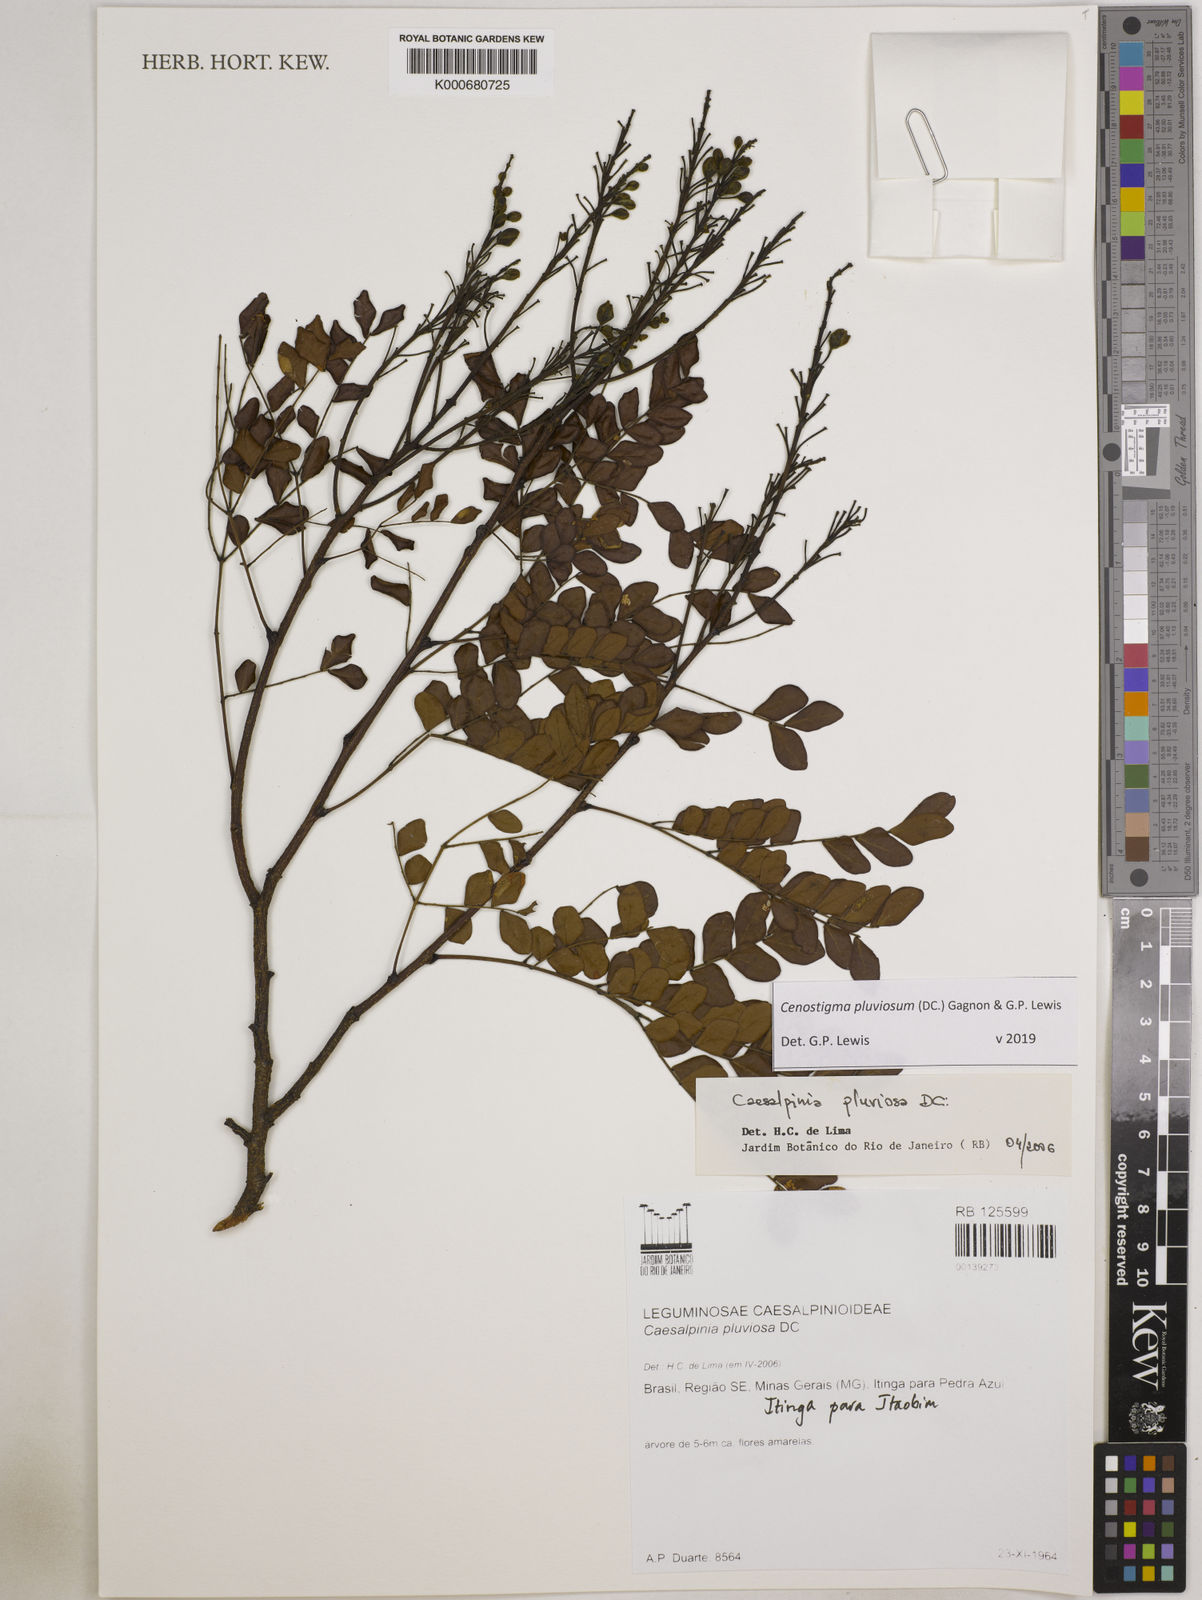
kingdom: Plantae
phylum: Tracheophyta
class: Magnoliopsida
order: Fabales
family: Fabaceae
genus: Cenostigma
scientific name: Cenostigma pluviosum
